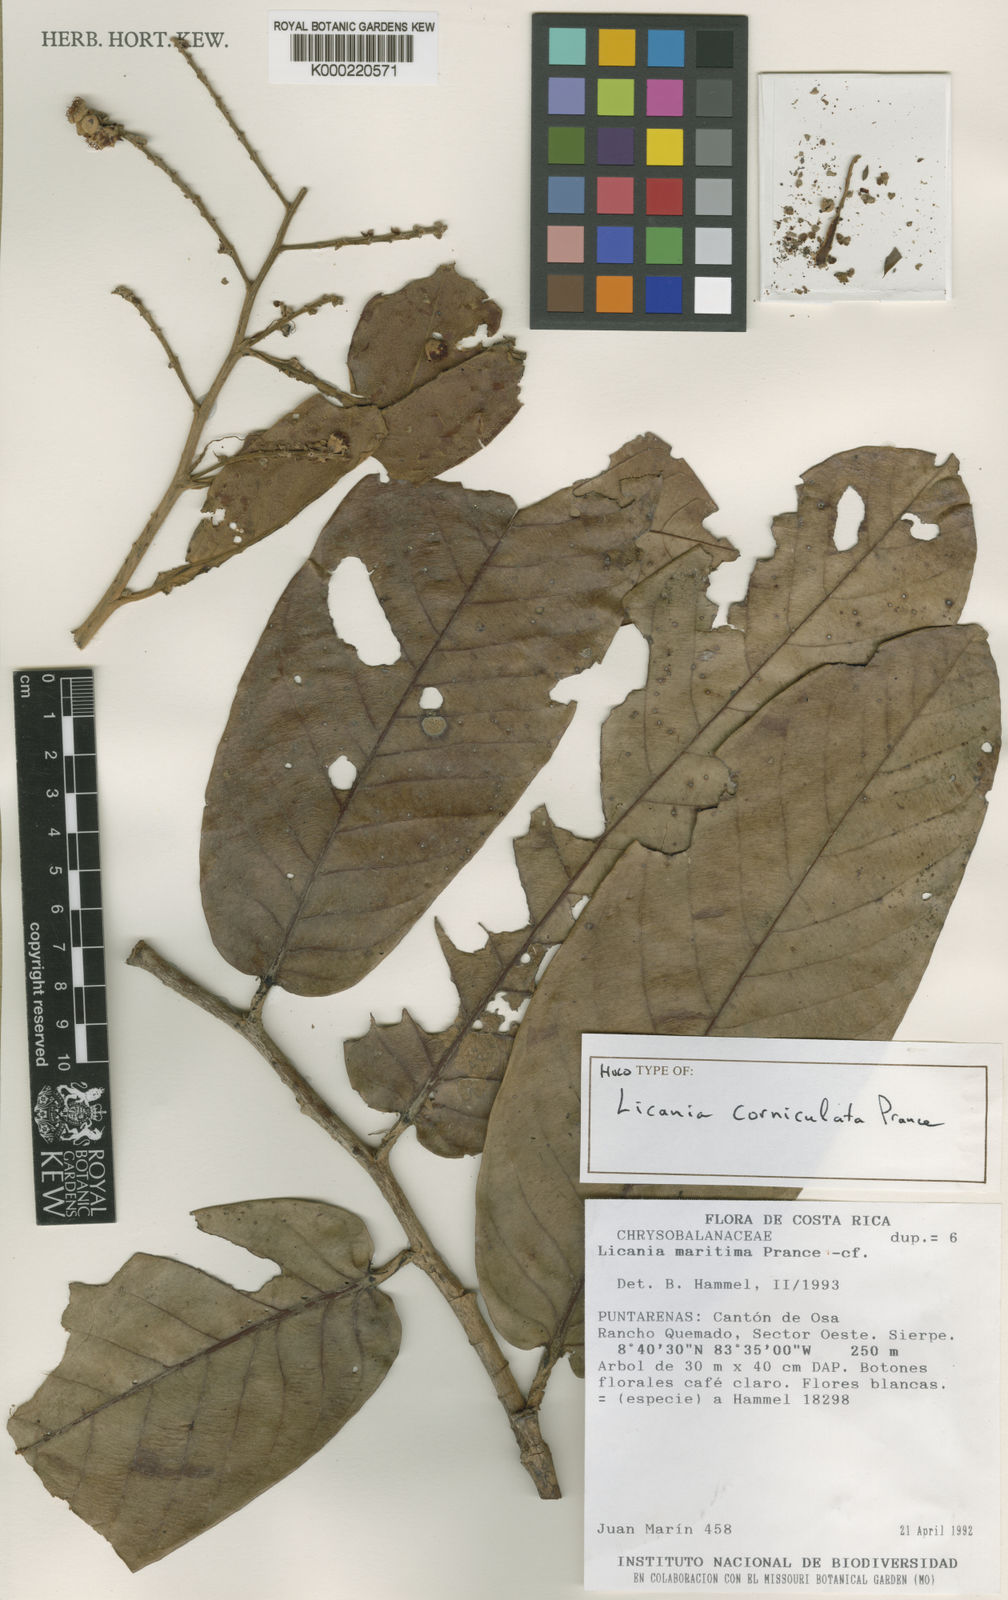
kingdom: Plantae
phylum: Tracheophyta
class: Magnoliopsida
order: Malpighiales
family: Chrysobalanaceae
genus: Moquilea
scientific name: Moquilea corniculata
